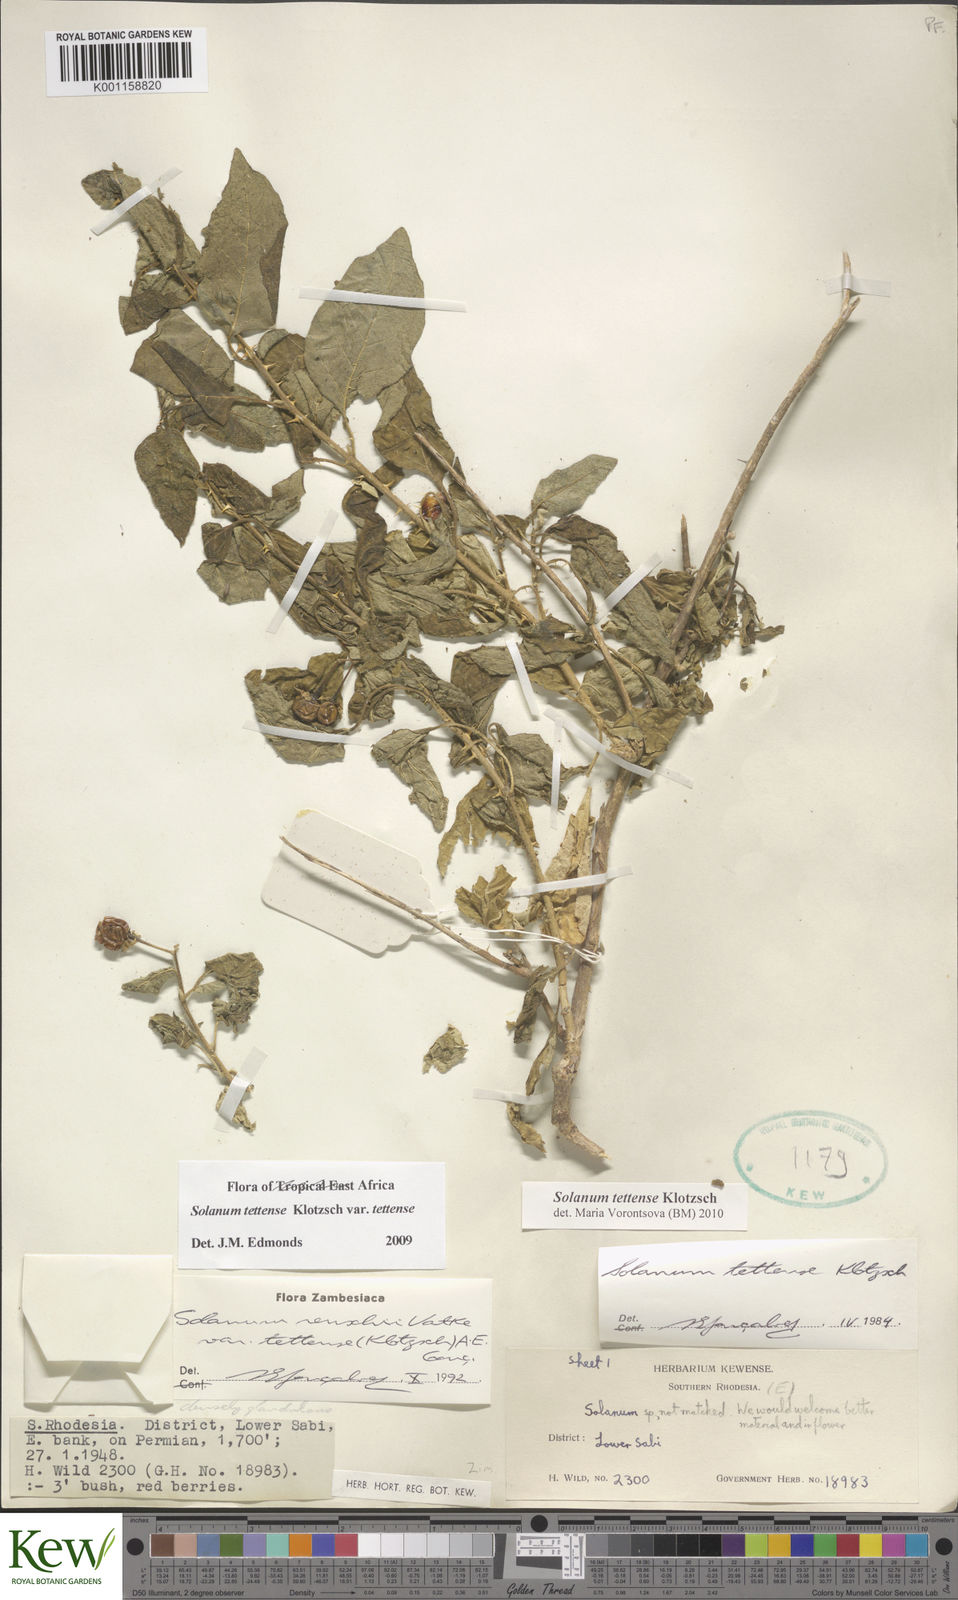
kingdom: Plantae
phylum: Tracheophyta
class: Magnoliopsida
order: Solanales
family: Solanaceae
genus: Solanum
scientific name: Solanum tettense
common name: Mozambique bitter apple
